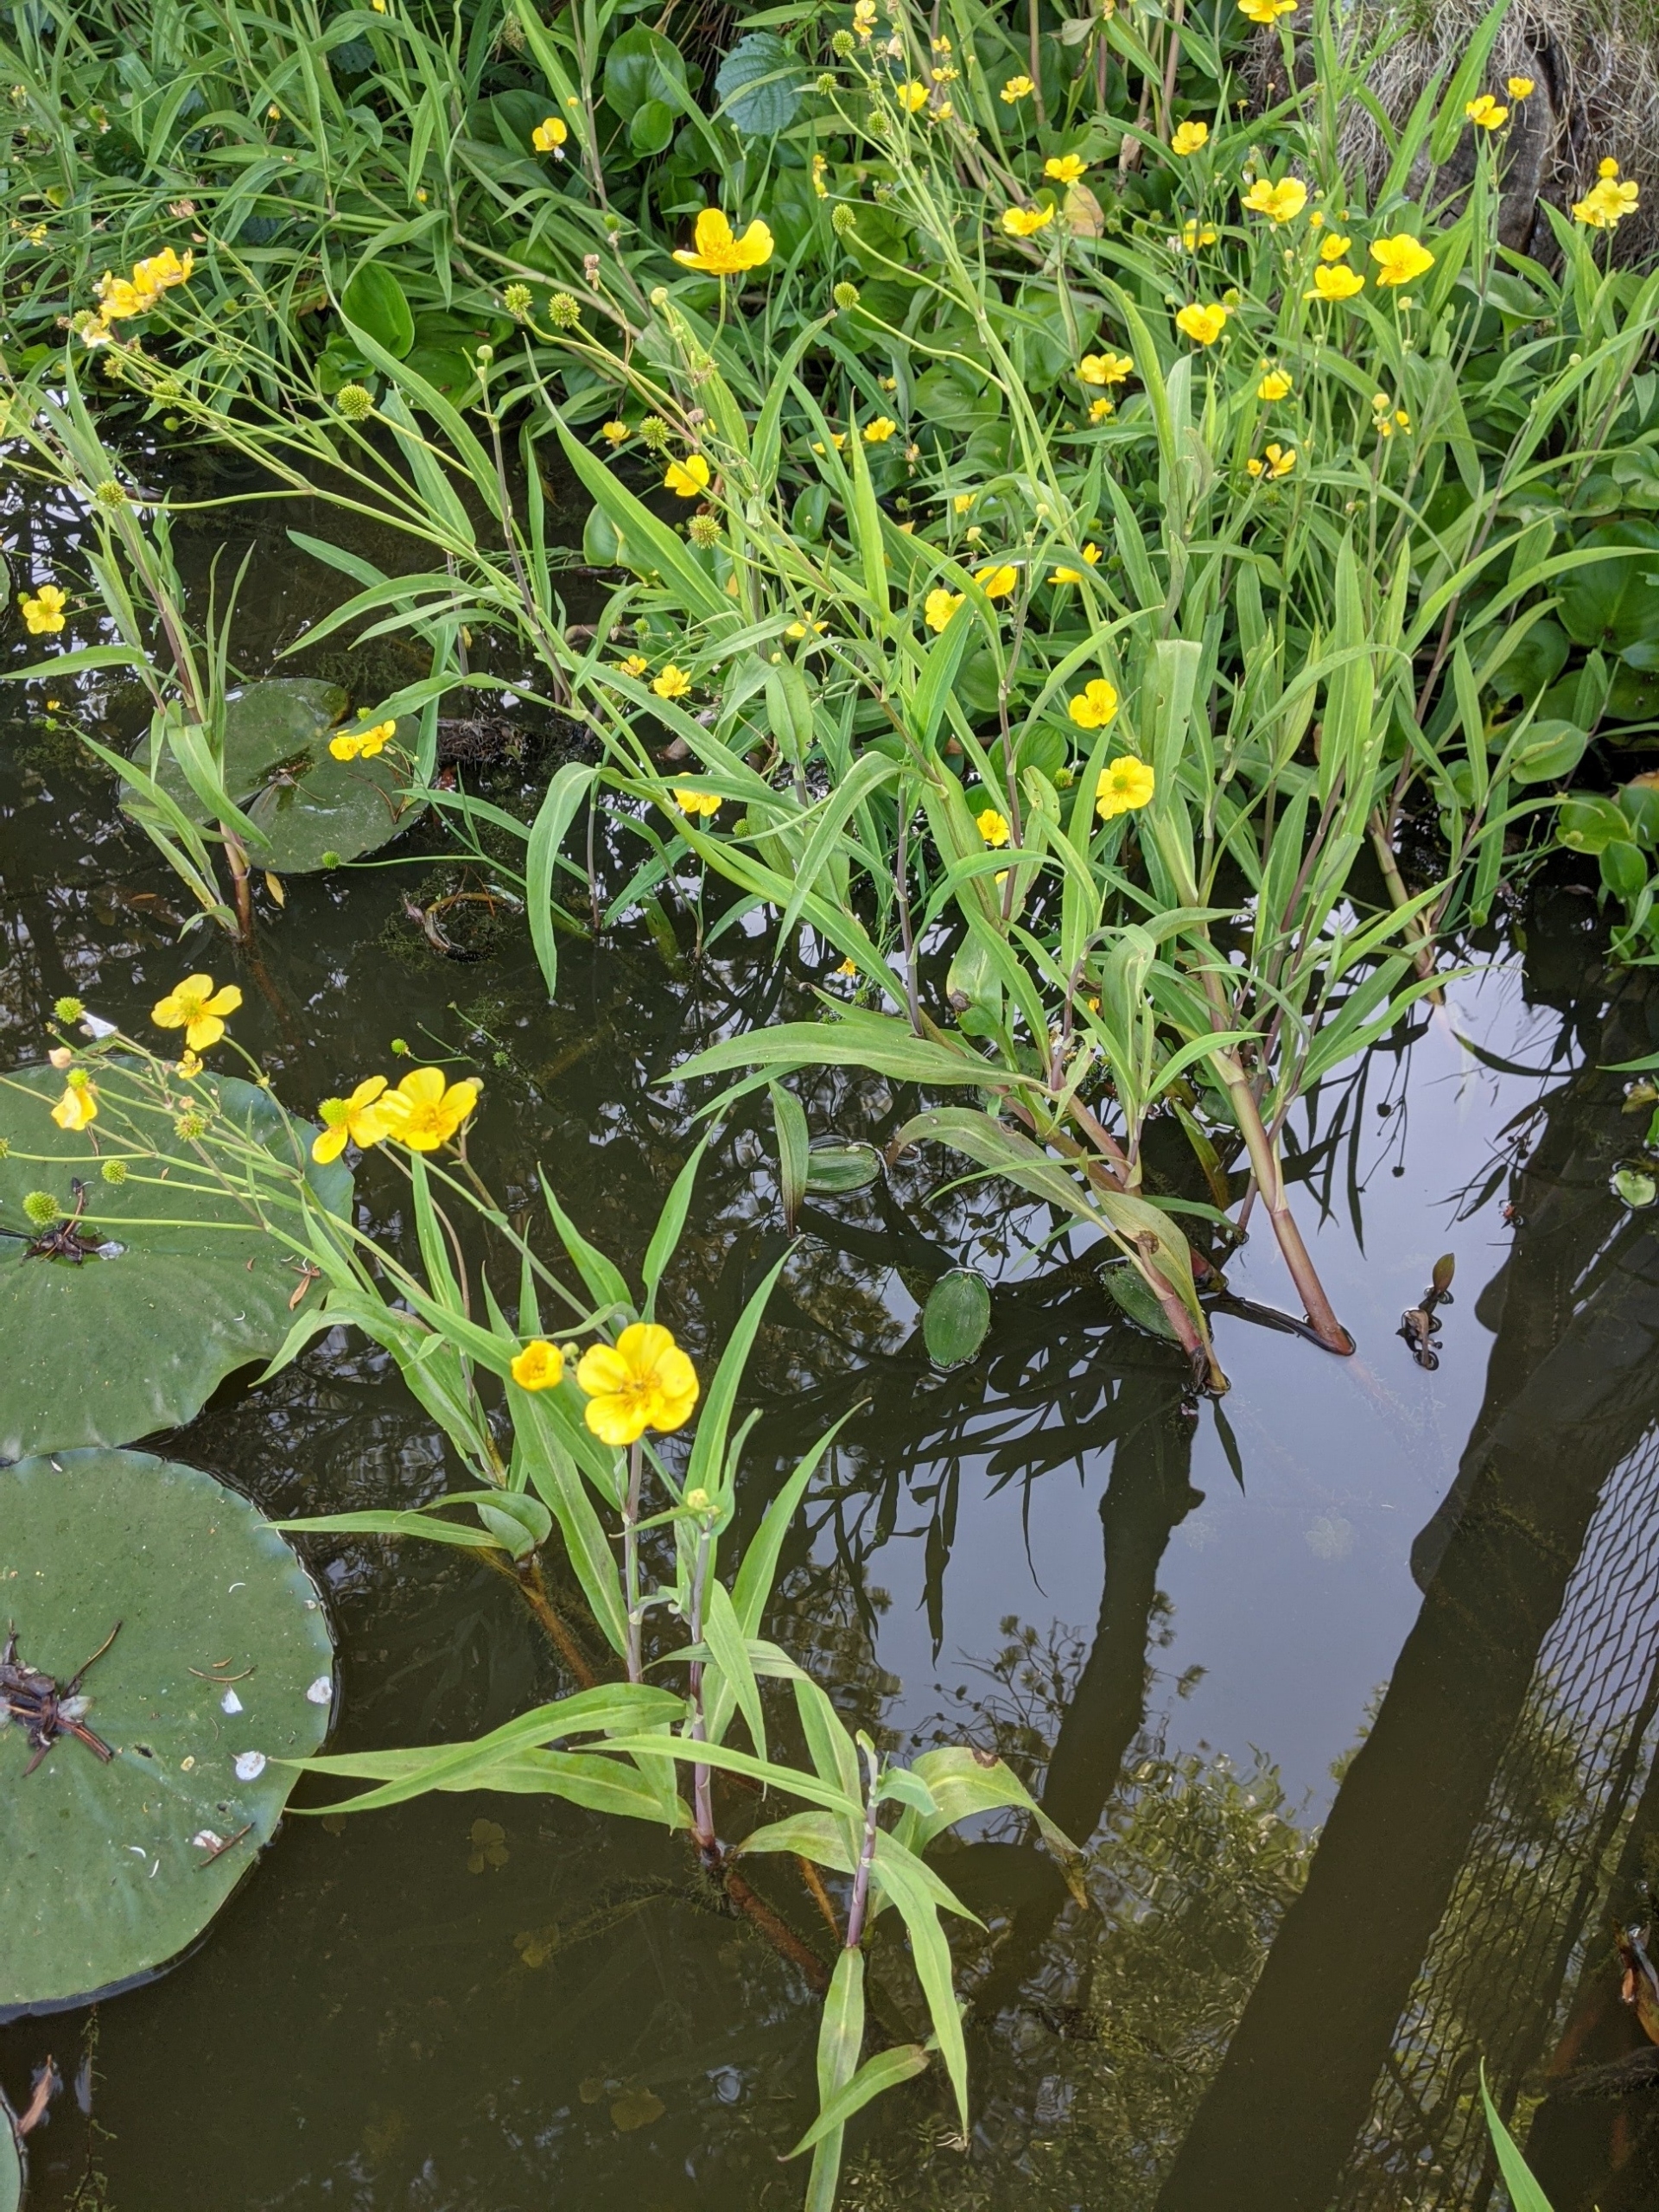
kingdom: Plantae
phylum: Tracheophyta
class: Magnoliopsida
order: Ranunculales
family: Ranunculaceae
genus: Ranunculus
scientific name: Ranunculus lingua
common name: Langbladet ranunkel
